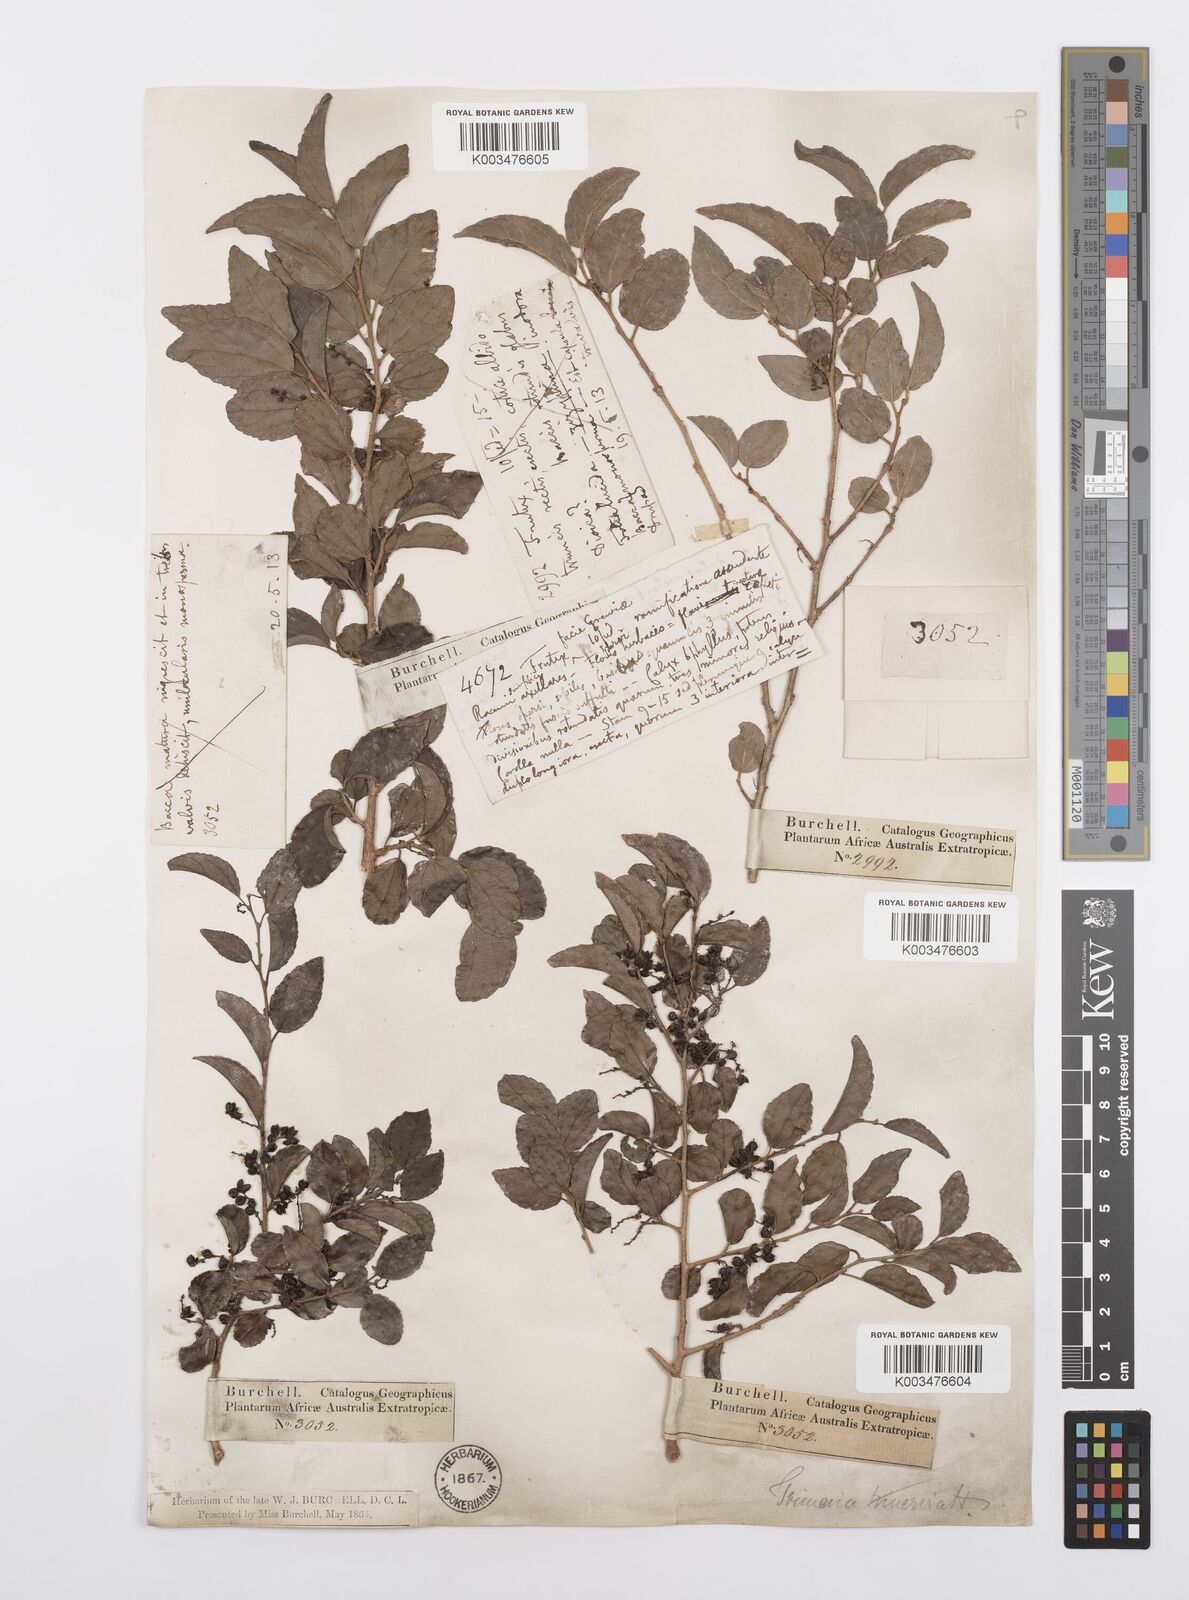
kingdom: Plantae
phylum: Tracheophyta
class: Magnoliopsida
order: Malpighiales
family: Salicaceae
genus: Trimeria
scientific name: Trimeria trinervis
